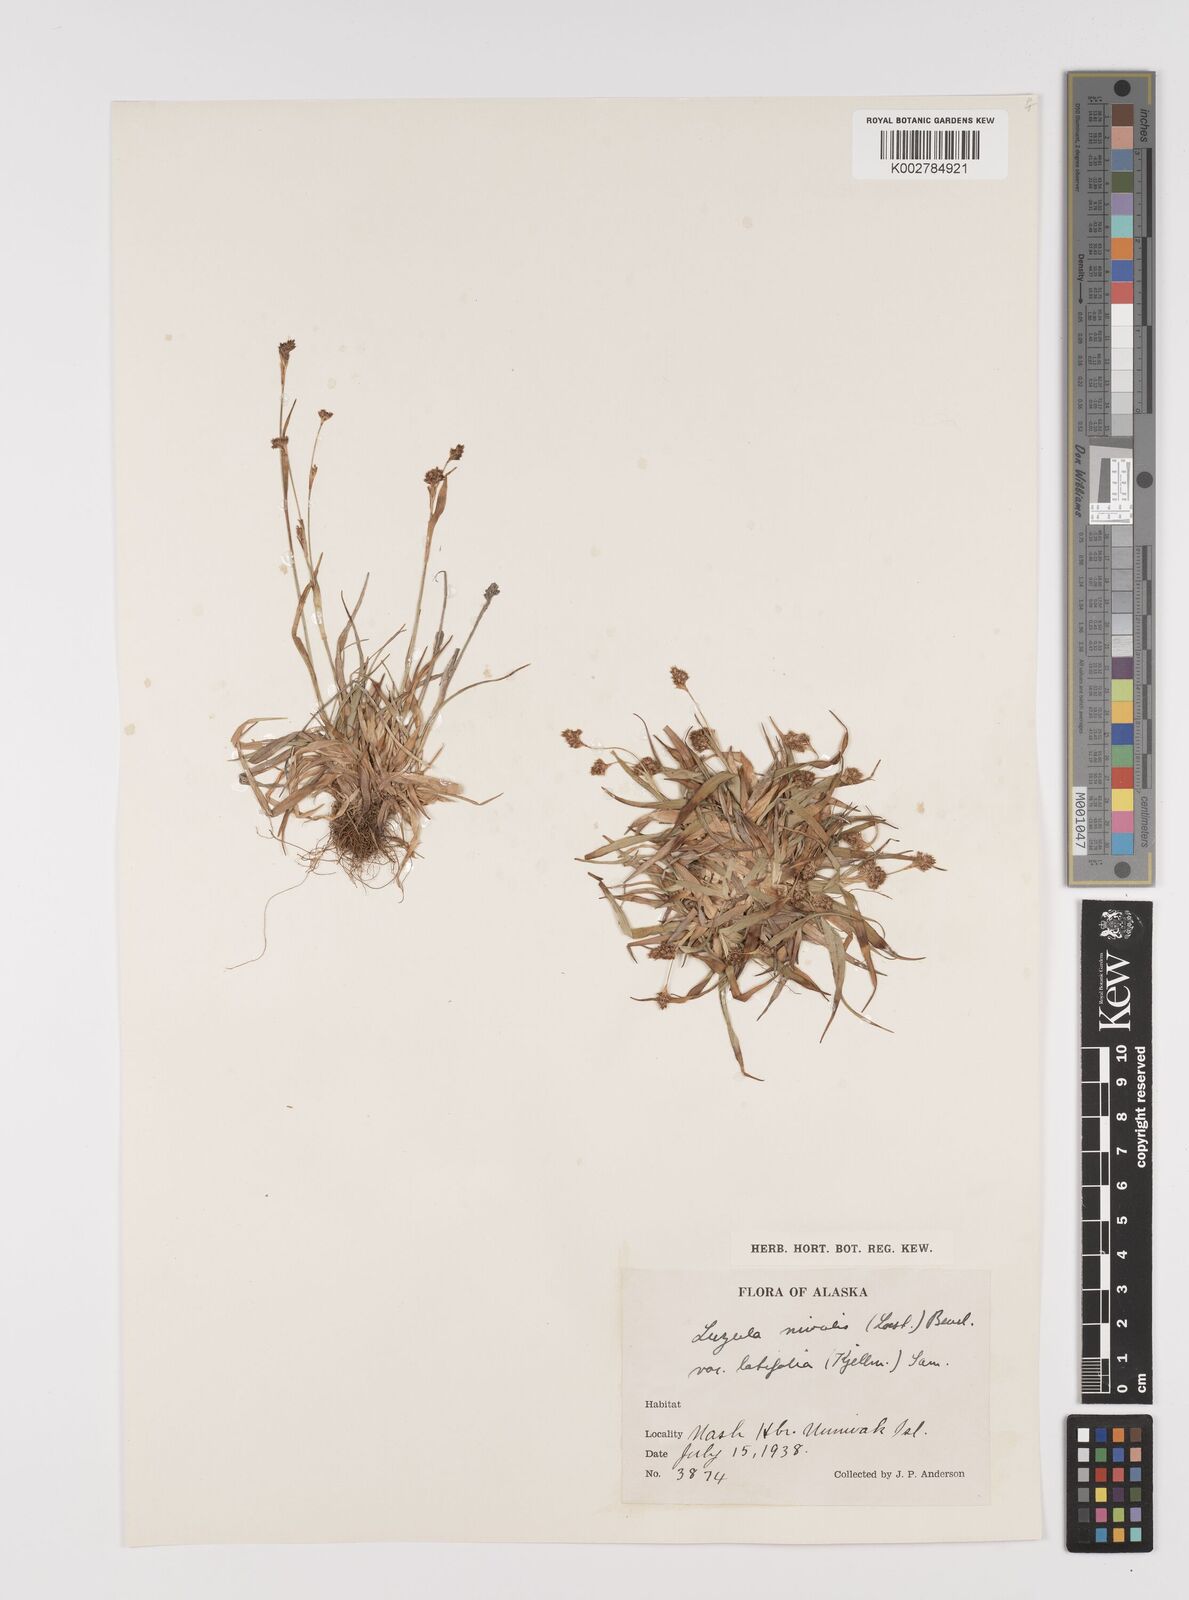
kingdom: Plantae
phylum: Tracheophyta
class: Liliopsida
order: Poales
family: Juncaceae
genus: Luzula
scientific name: Luzula nivalis
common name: Arctic woodrush
